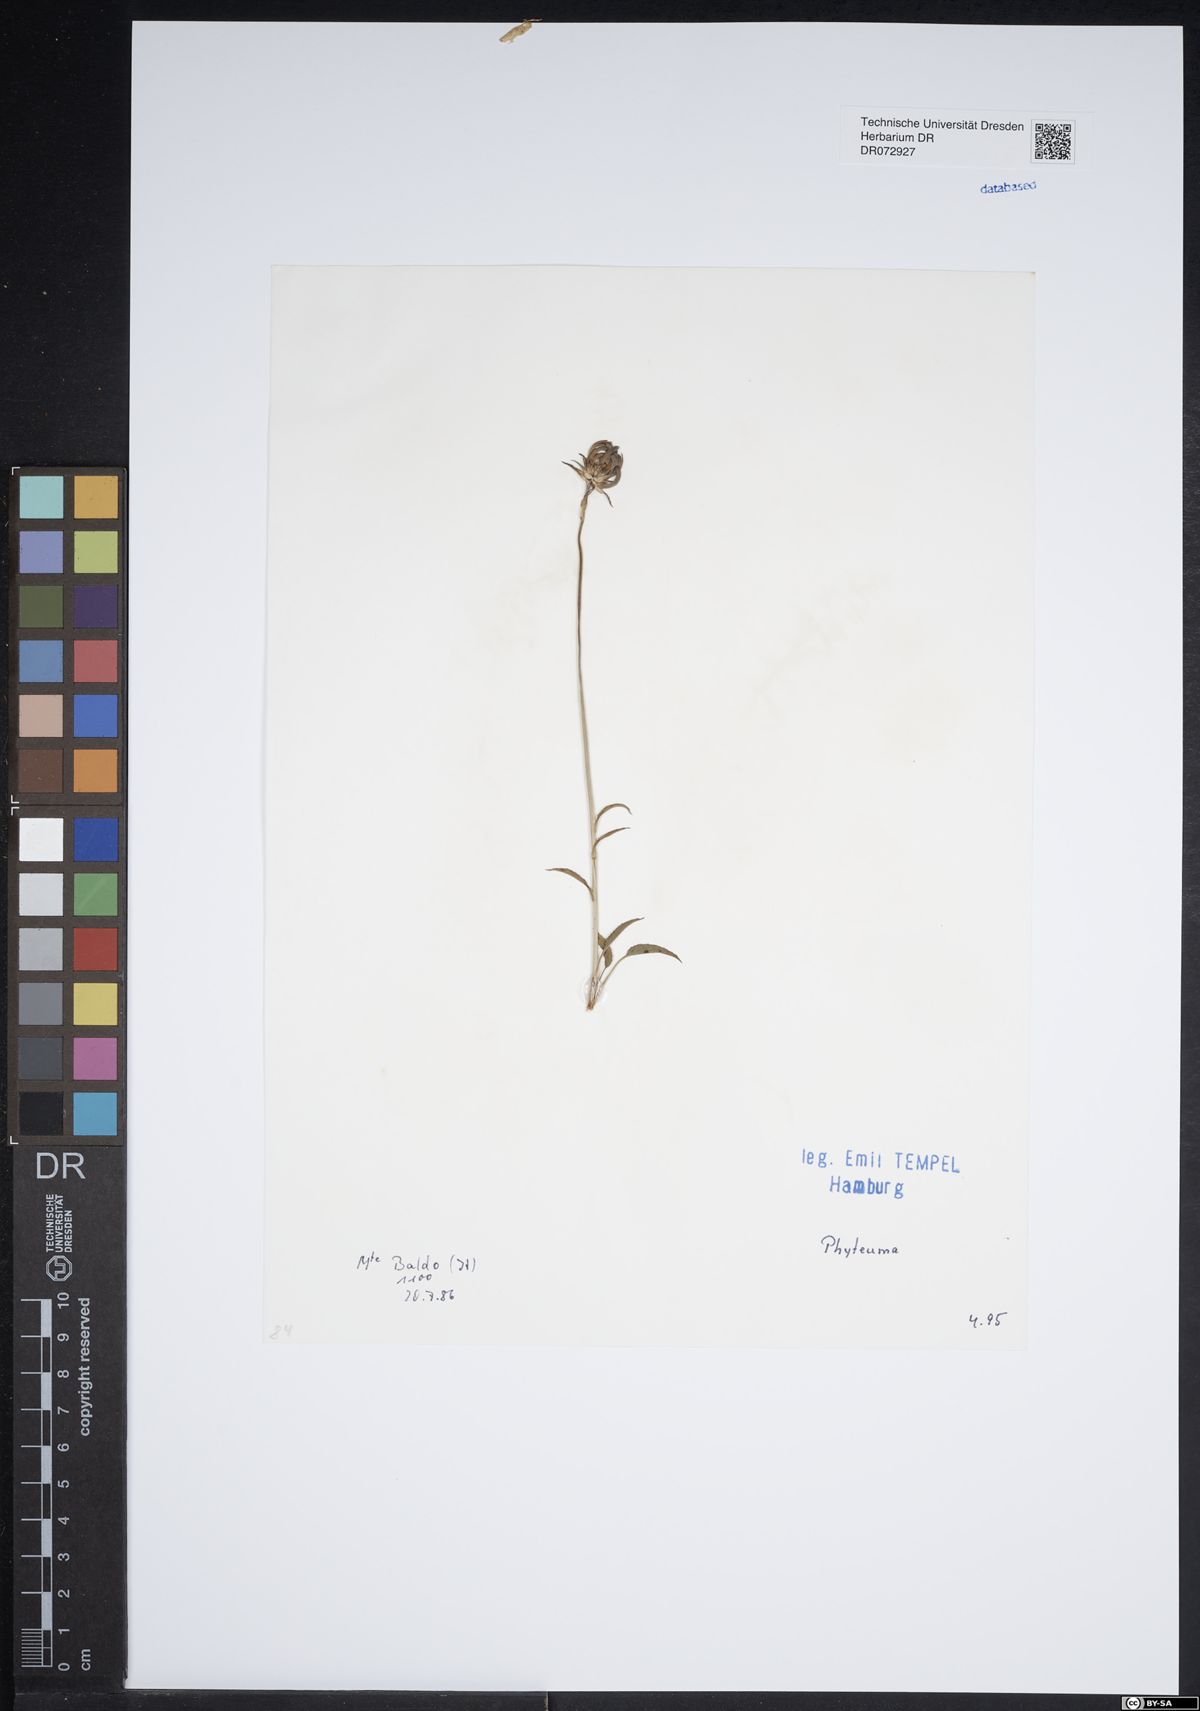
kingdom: Plantae
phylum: Tracheophyta
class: Magnoliopsida
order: Asterales
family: Campanulaceae
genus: Phyteuma
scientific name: Phyteuma
